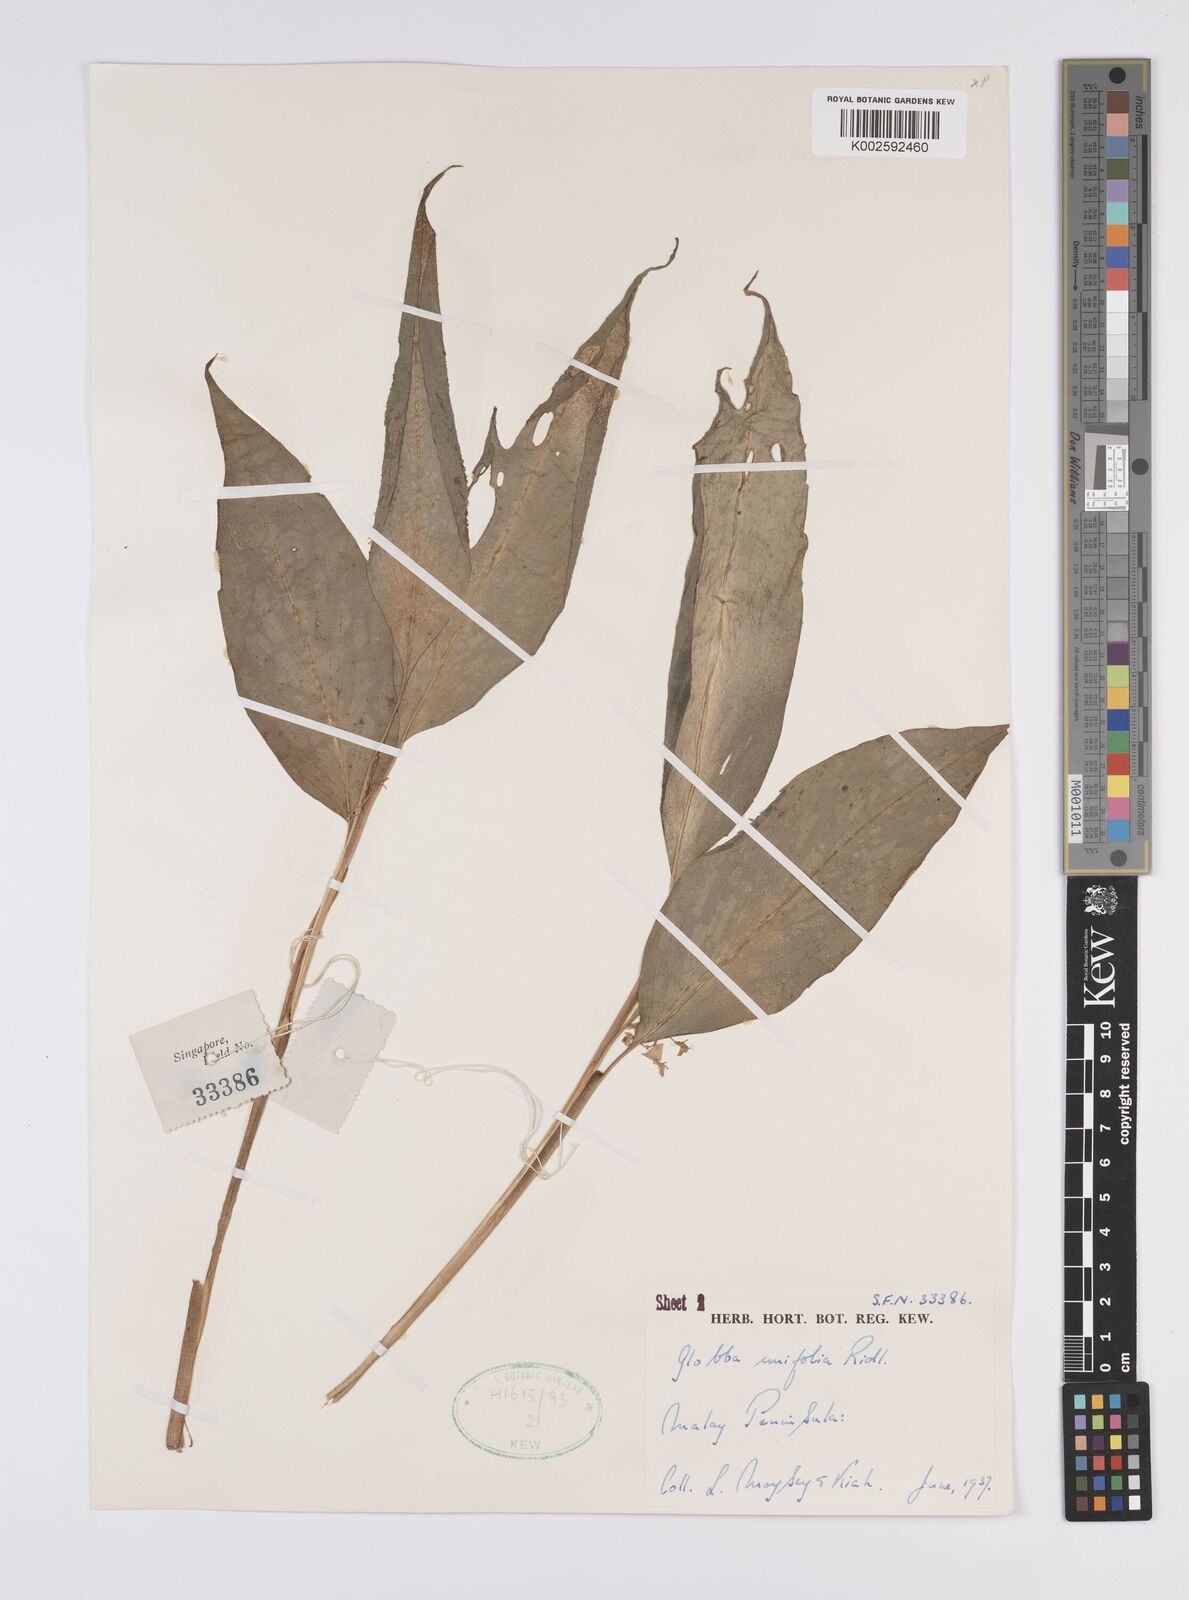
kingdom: Plantae
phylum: Tracheophyta
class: Liliopsida
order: Zingiberales
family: Zingiberaceae
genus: Globba
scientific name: Globba unifolia
